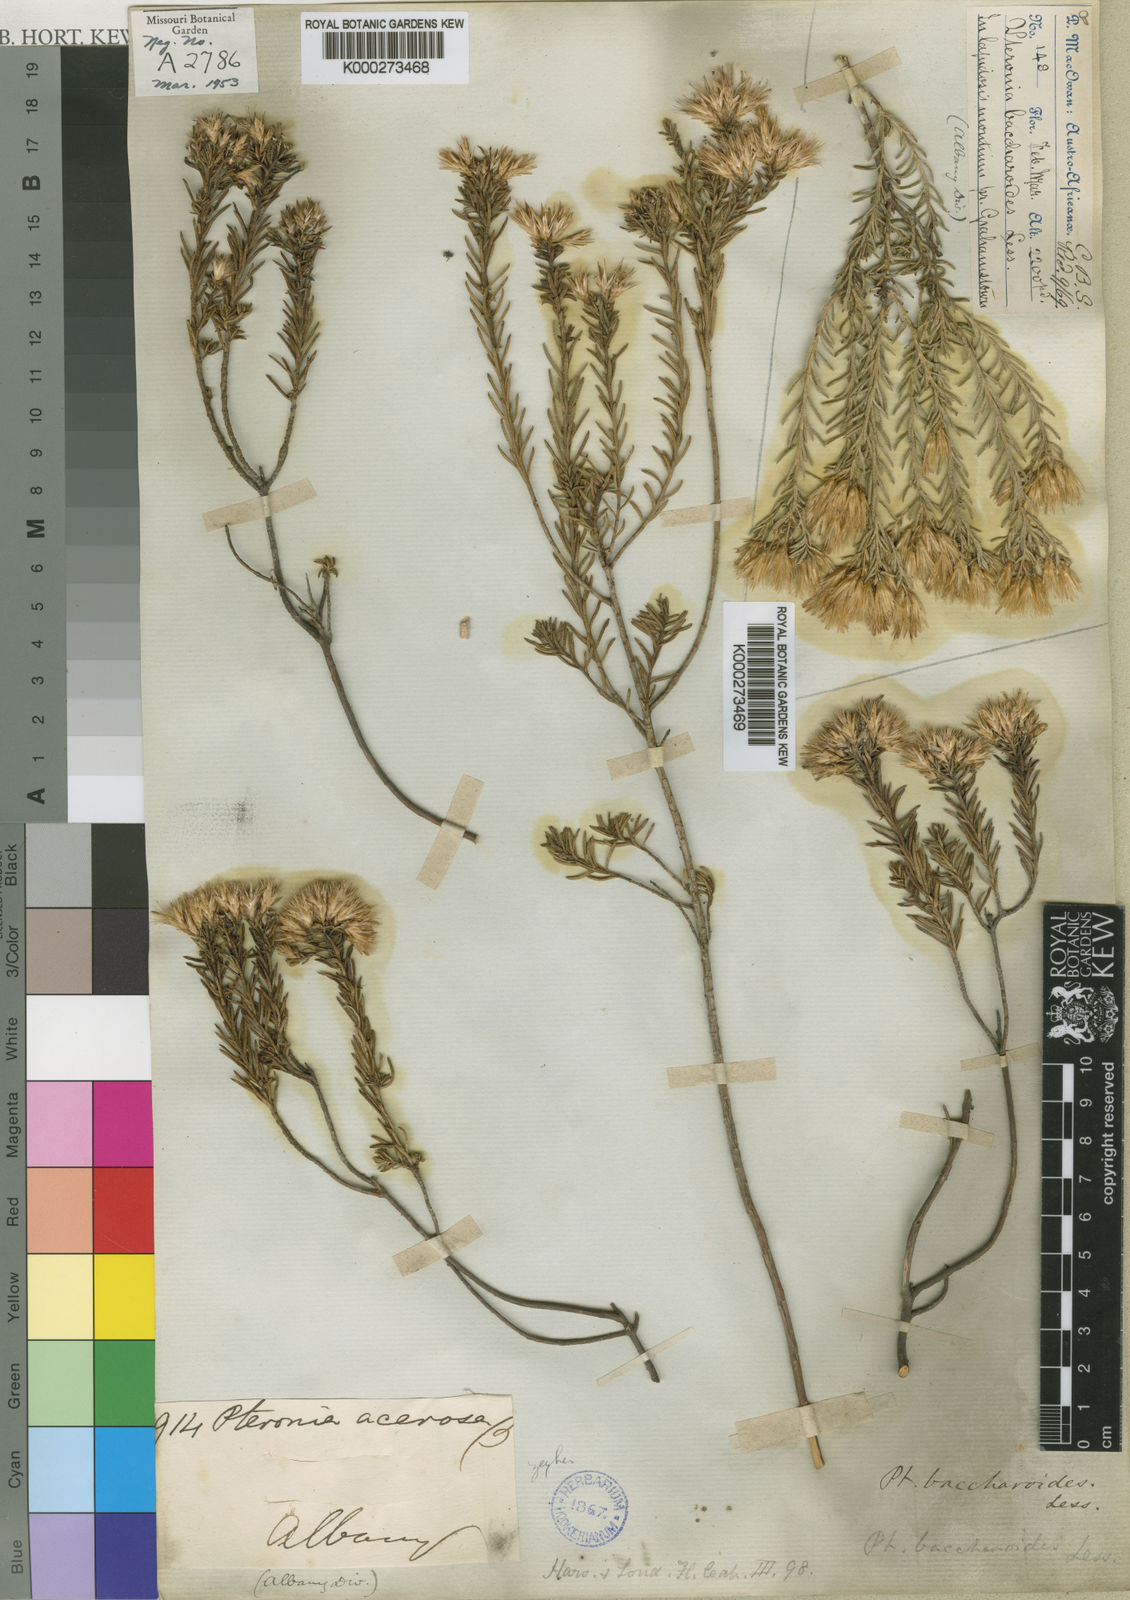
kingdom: Plantae
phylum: Tracheophyta
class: Magnoliopsida
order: Asterales
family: Asteraceae
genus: Pteronia
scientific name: Pteronia teretifolia
